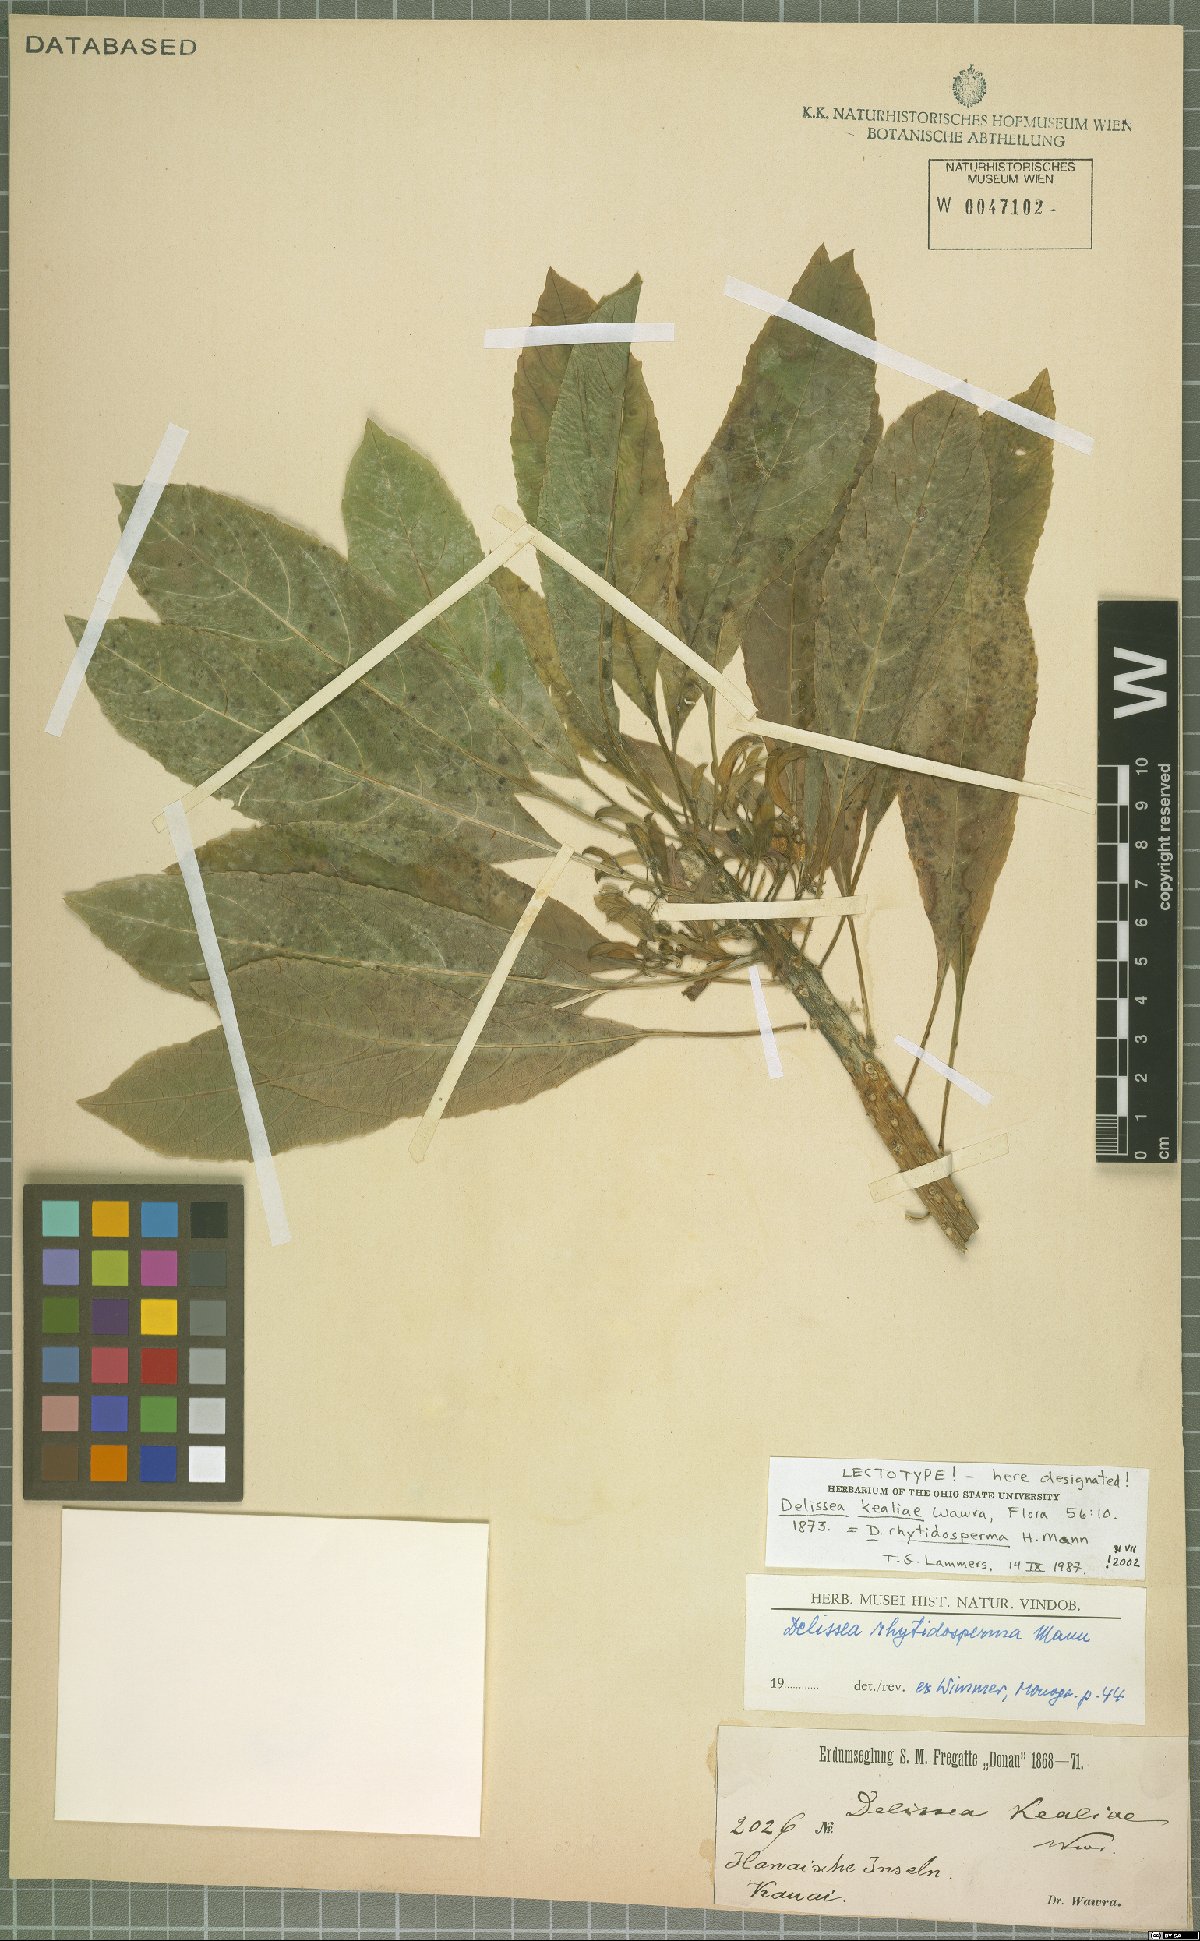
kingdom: Plantae
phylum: Tracheophyta
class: Magnoliopsida
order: Asterales
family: Campanulaceae
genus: Delissea
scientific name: Delissea rhytidosperma
